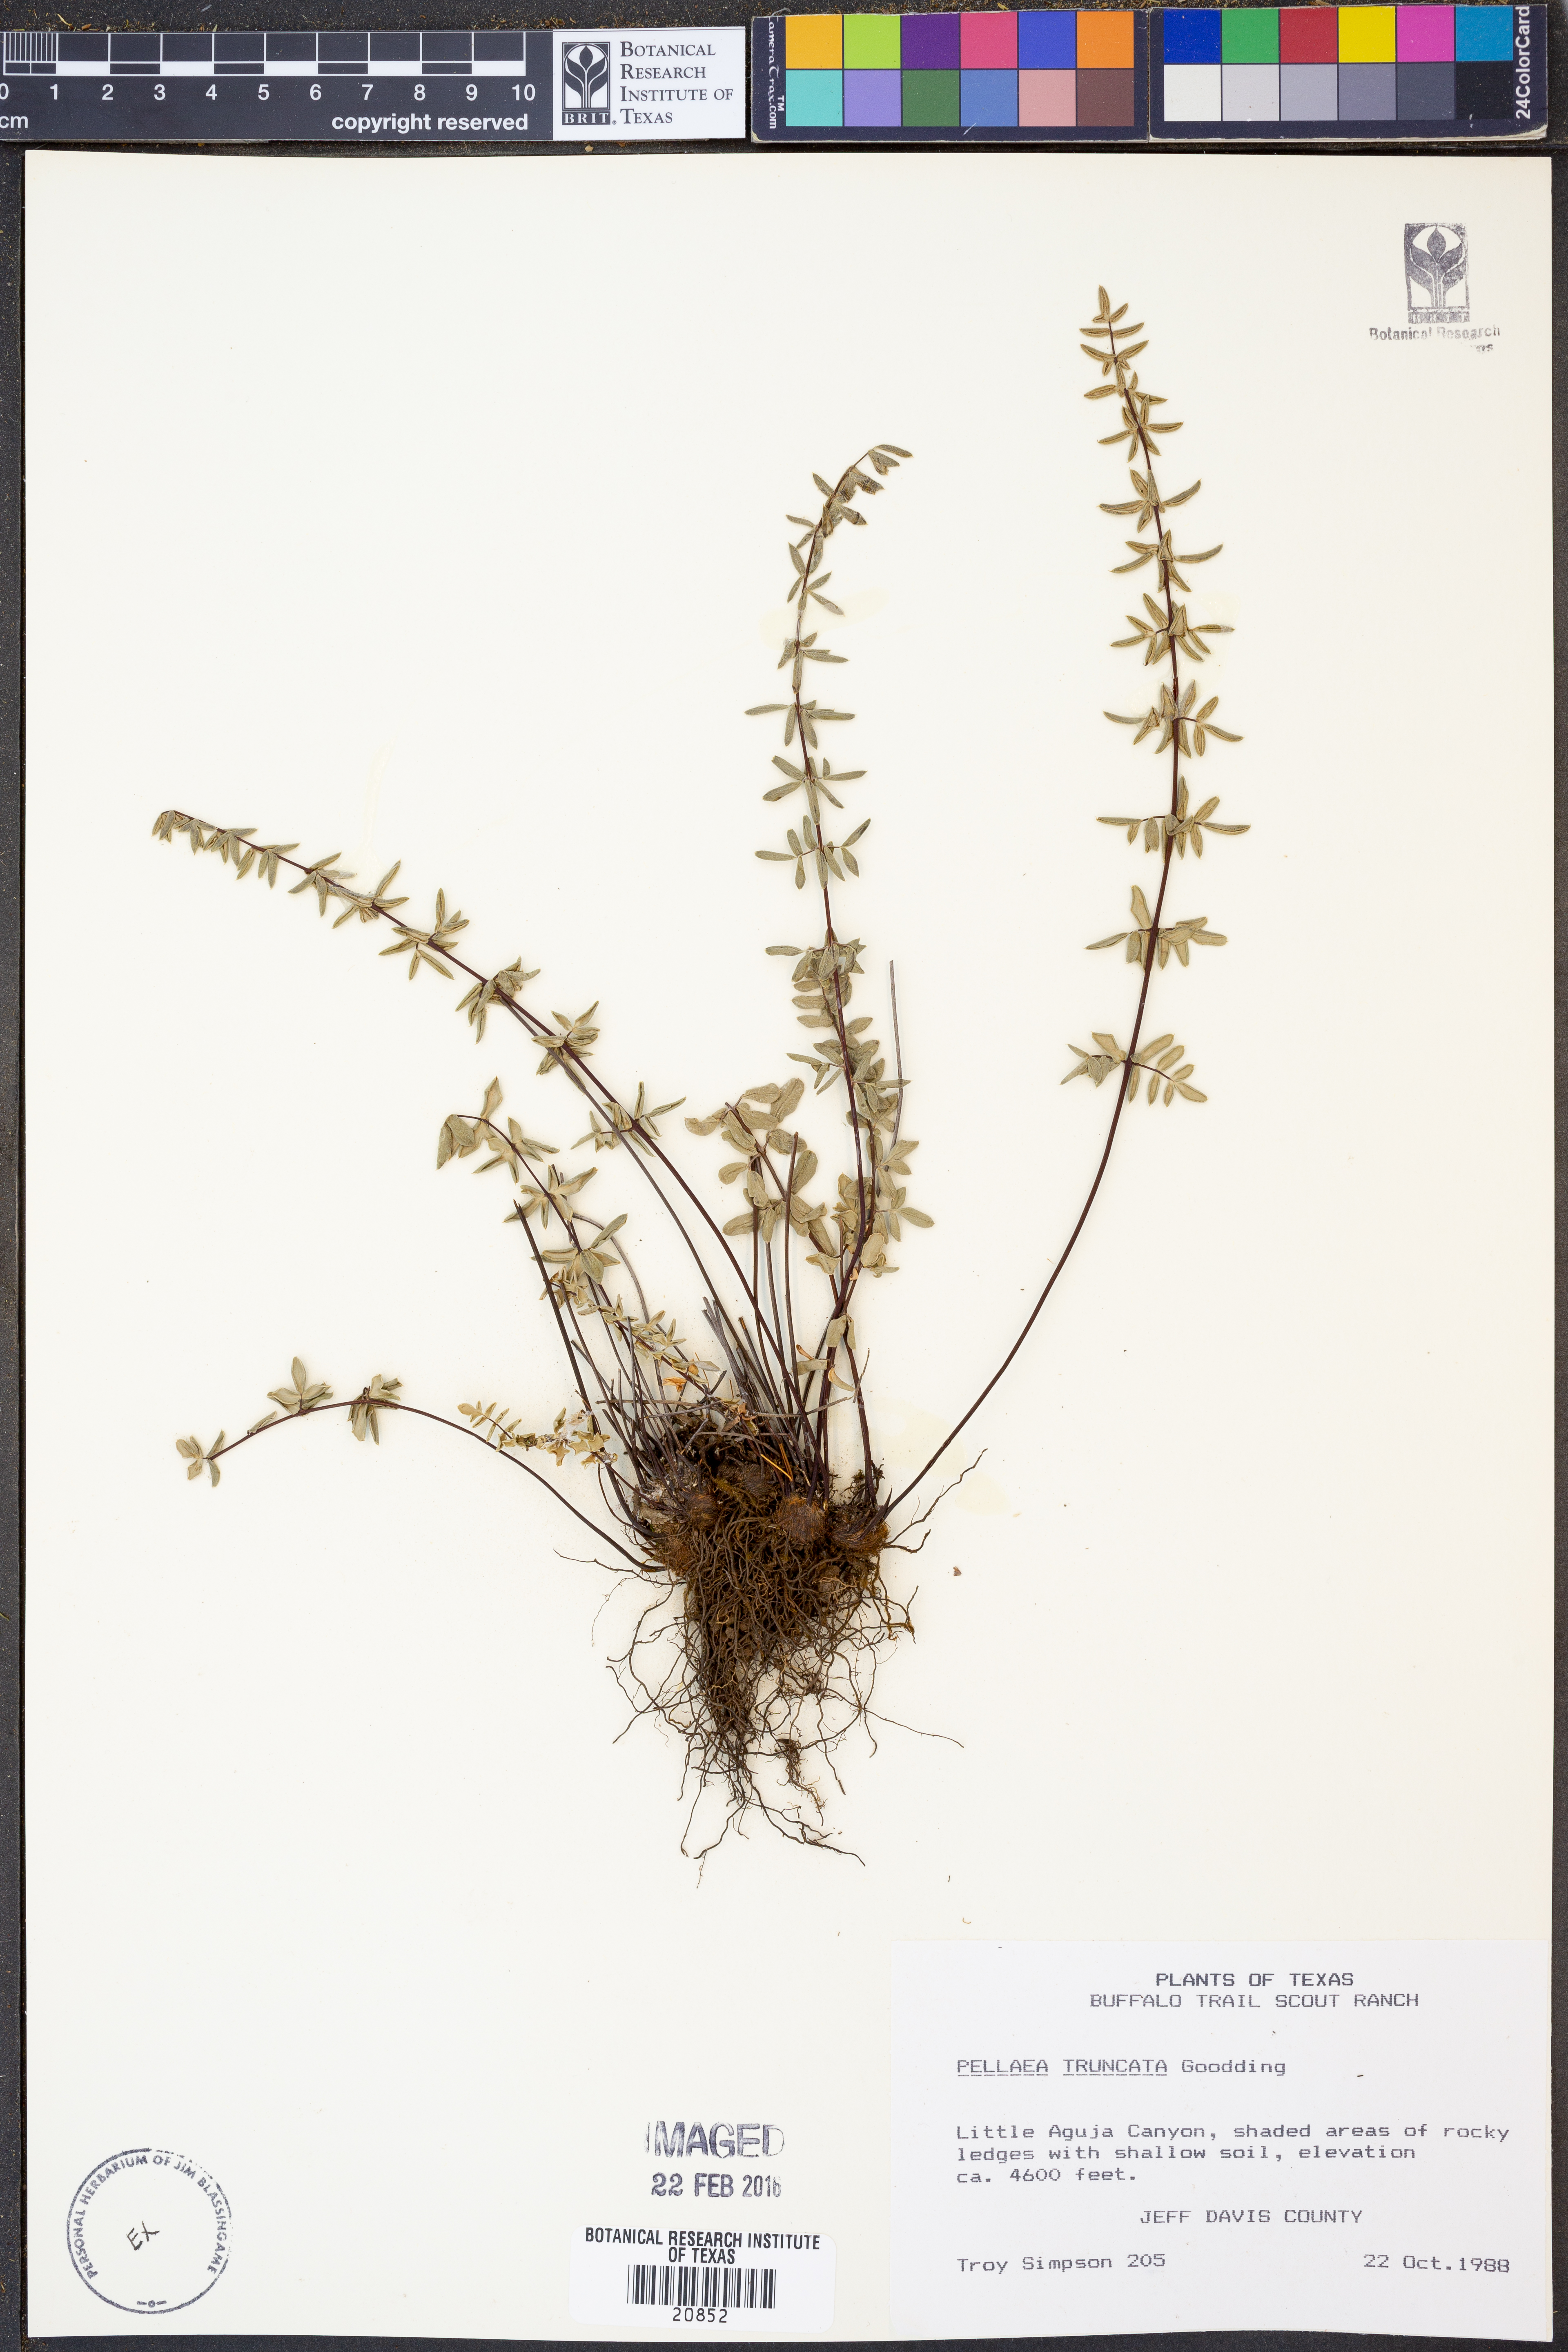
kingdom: Plantae
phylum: Tracheophyta
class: Polypodiopsida
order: Polypodiales
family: Pteridaceae
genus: Pellaea
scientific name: Pellaea truncata
